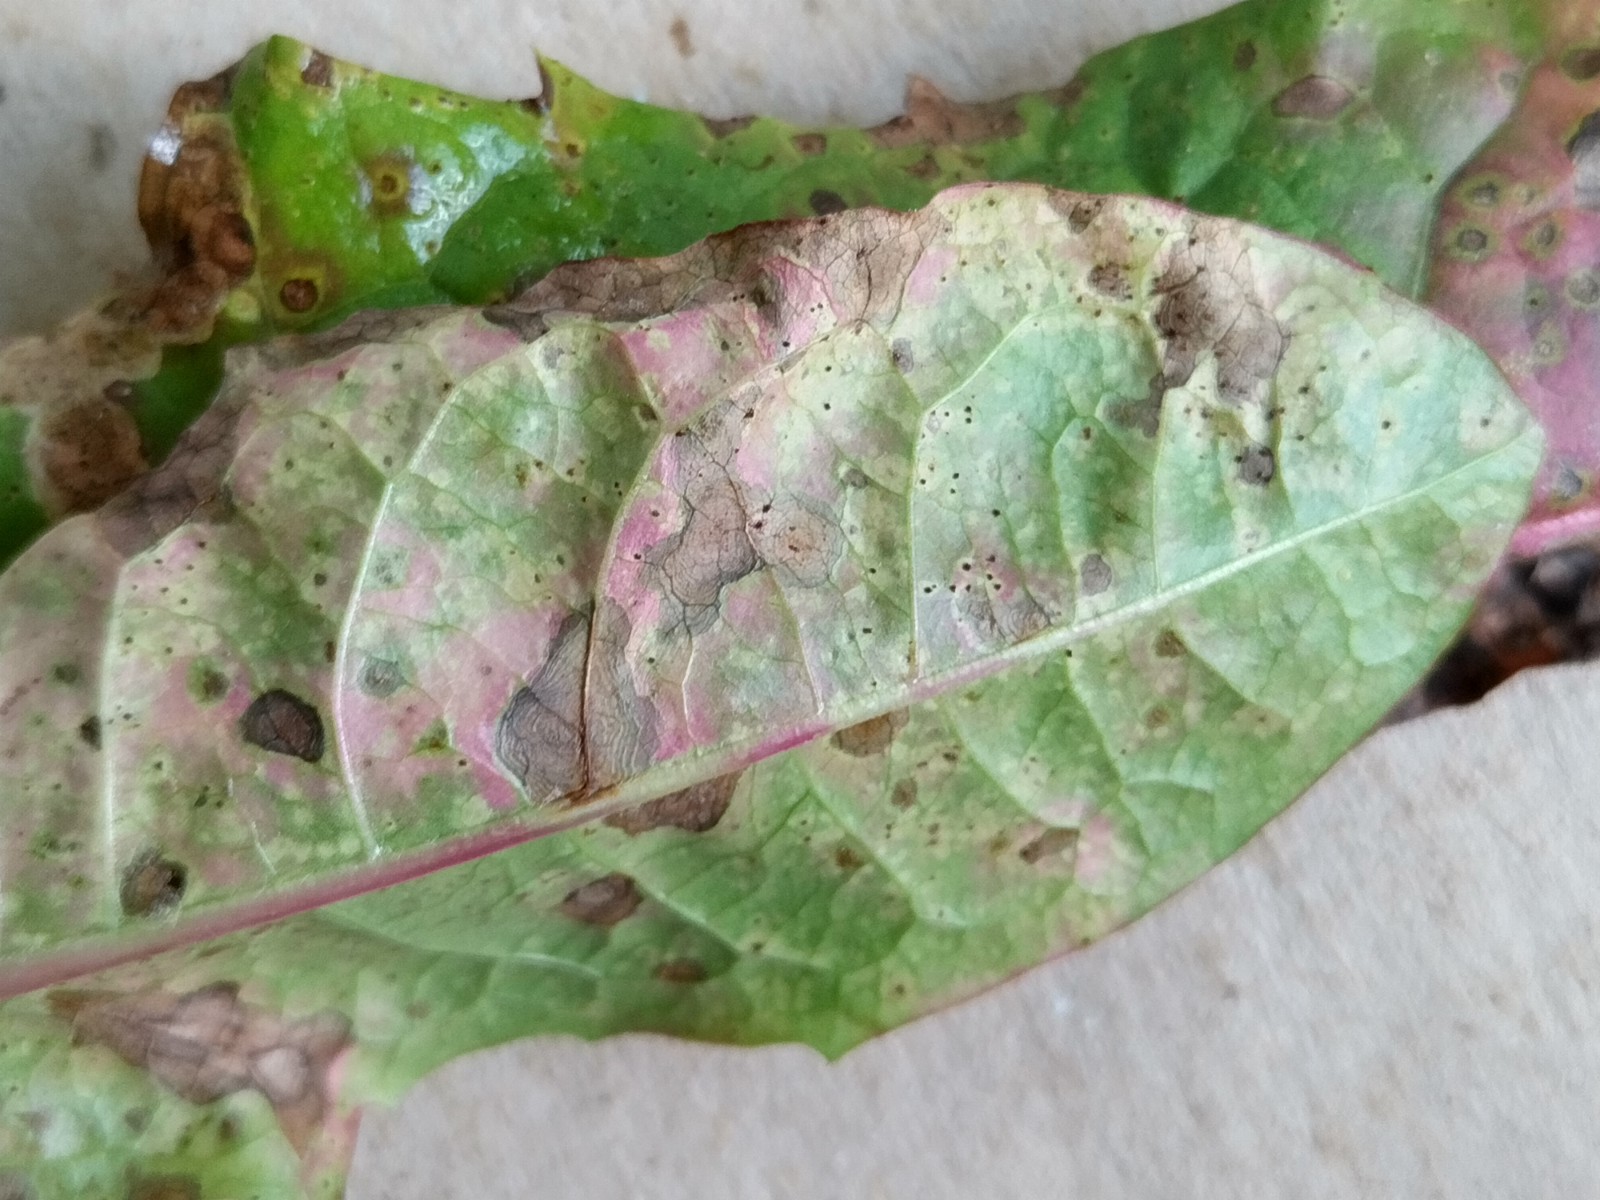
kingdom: Fungi
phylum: Basidiomycota
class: Pucciniomycetes
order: Pucciniales
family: Pucciniaceae
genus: Puccinia
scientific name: Puccinia hieracii
